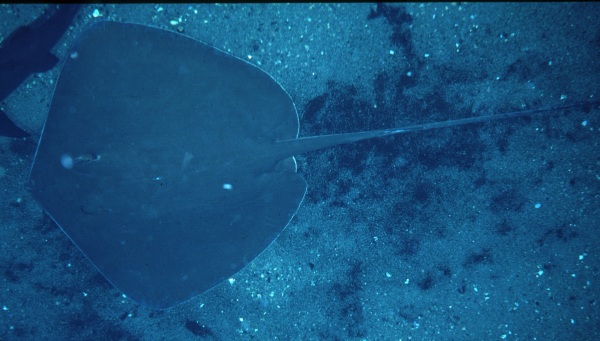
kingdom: Animalia
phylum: Chordata
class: Elasmobranchii
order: Myliobatiformes
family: Dasyatidae
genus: Maculabatis
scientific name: Maculabatis gerrardi
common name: Sharpnose stingray
